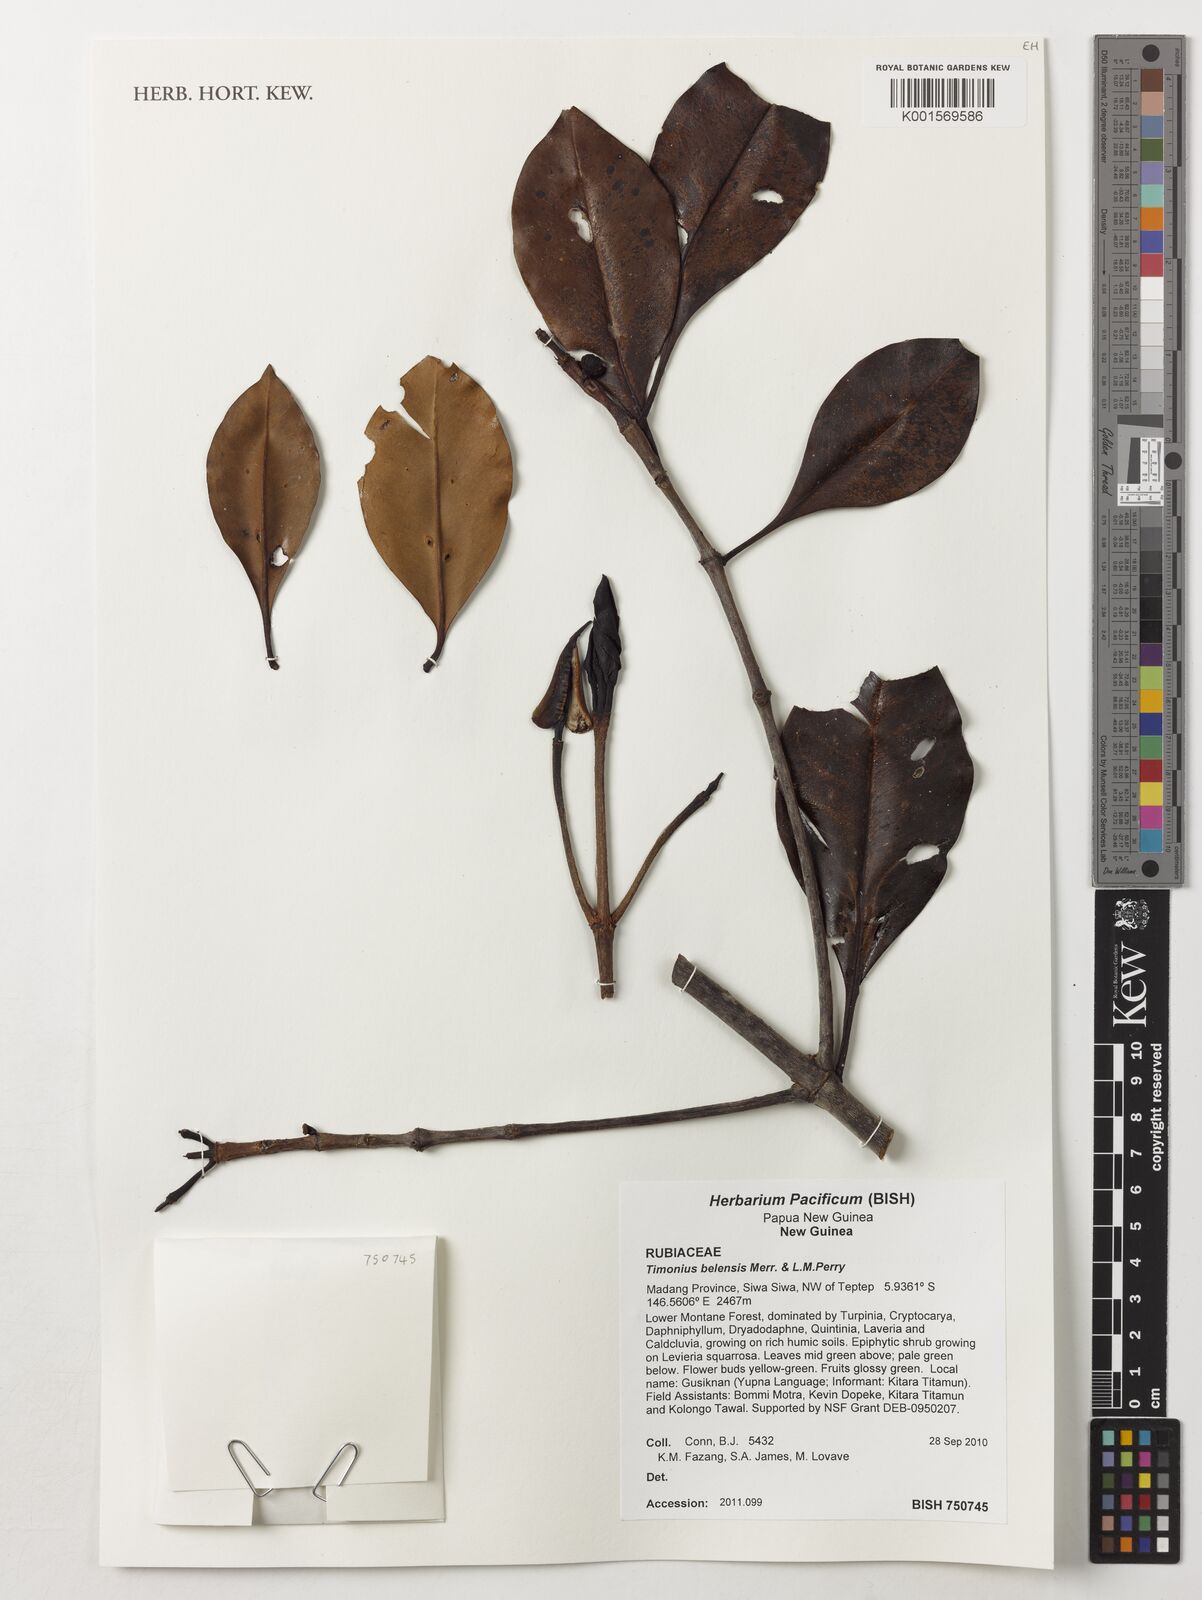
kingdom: Plantae
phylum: Tracheophyta
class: Magnoliopsida
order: Gentianales
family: Rubiaceae
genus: Timonius
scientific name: Timonius belensis
